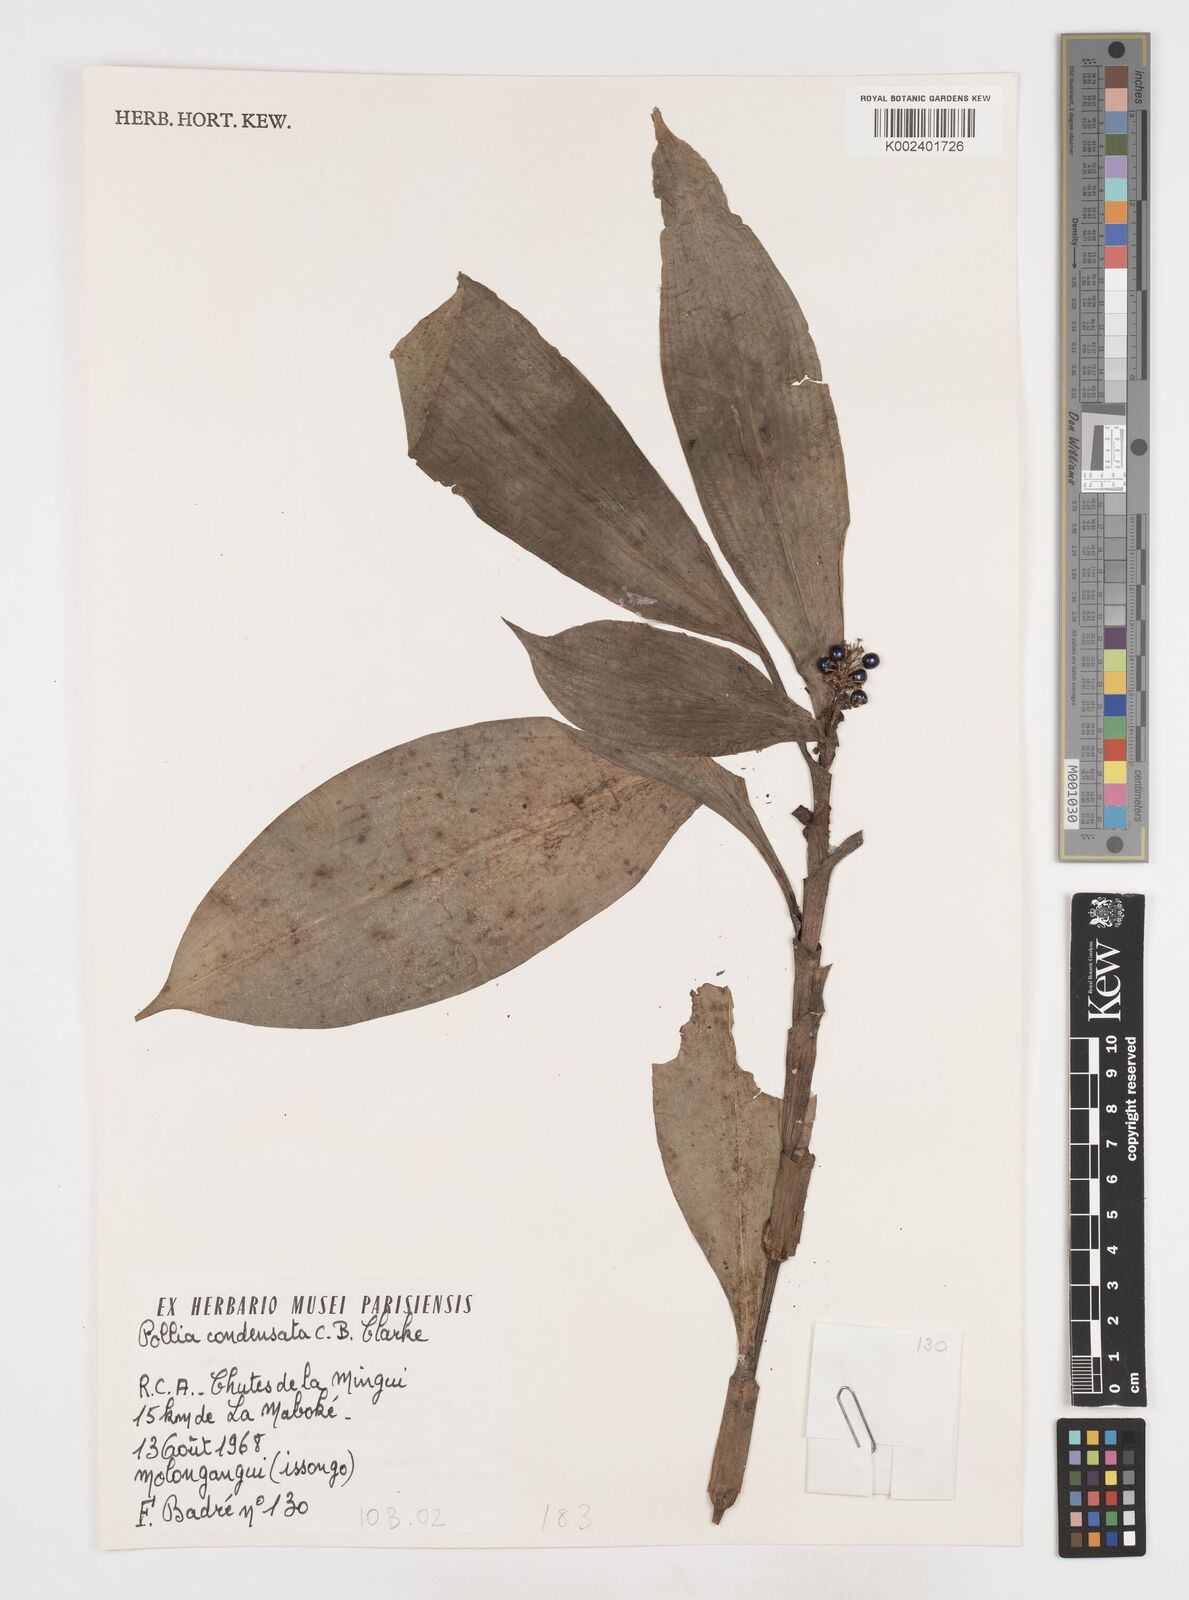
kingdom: Plantae
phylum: Tracheophyta
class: Liliopsida
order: Commelinales
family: Commelinaceae
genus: Pollia
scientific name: Pollia condensata
